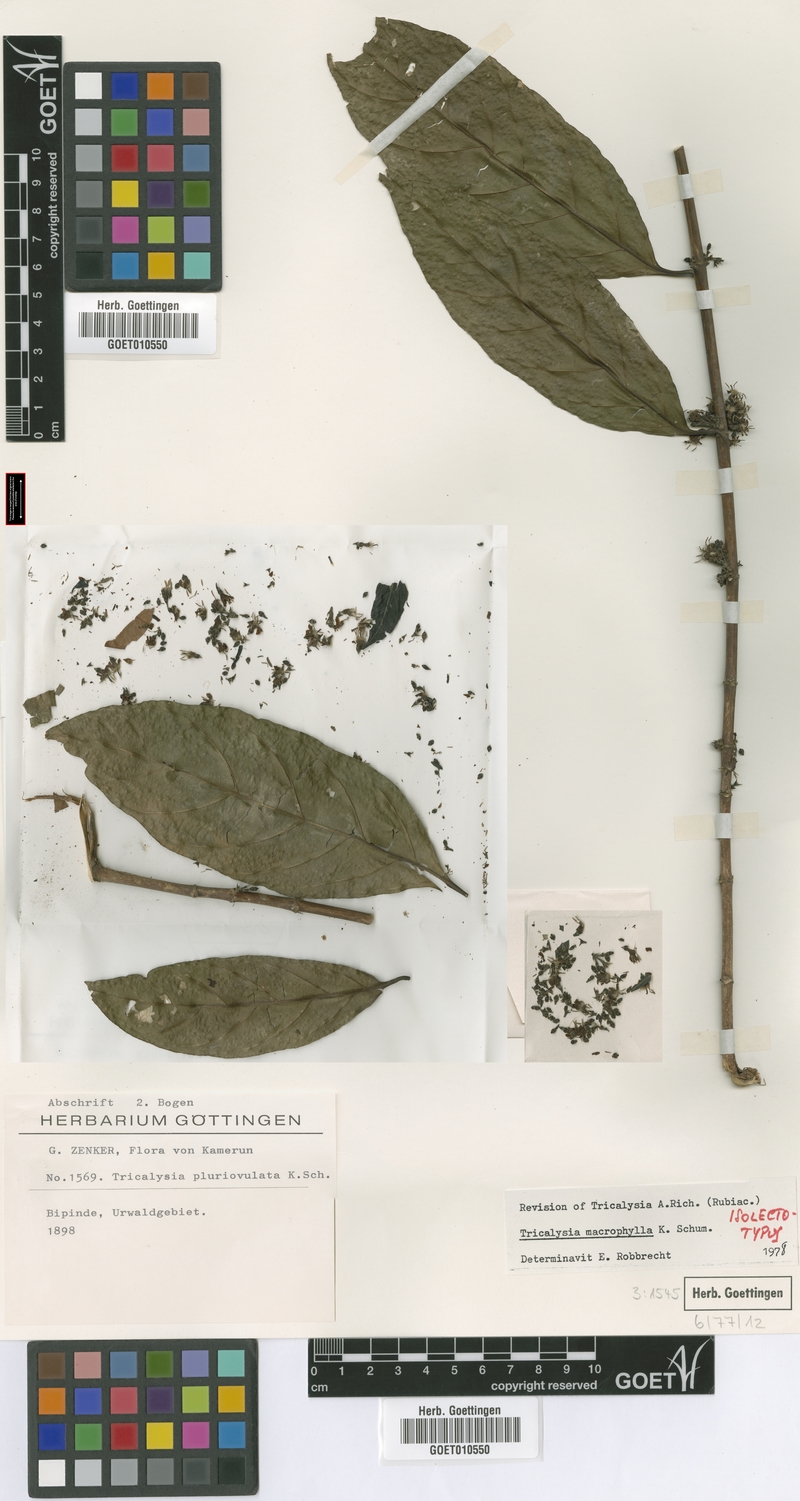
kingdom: Plantae
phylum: Tracheophyta
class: Magnoliopsida
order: Gentianales
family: Rubiaceae
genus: Empogona
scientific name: Empogona macrophylla
